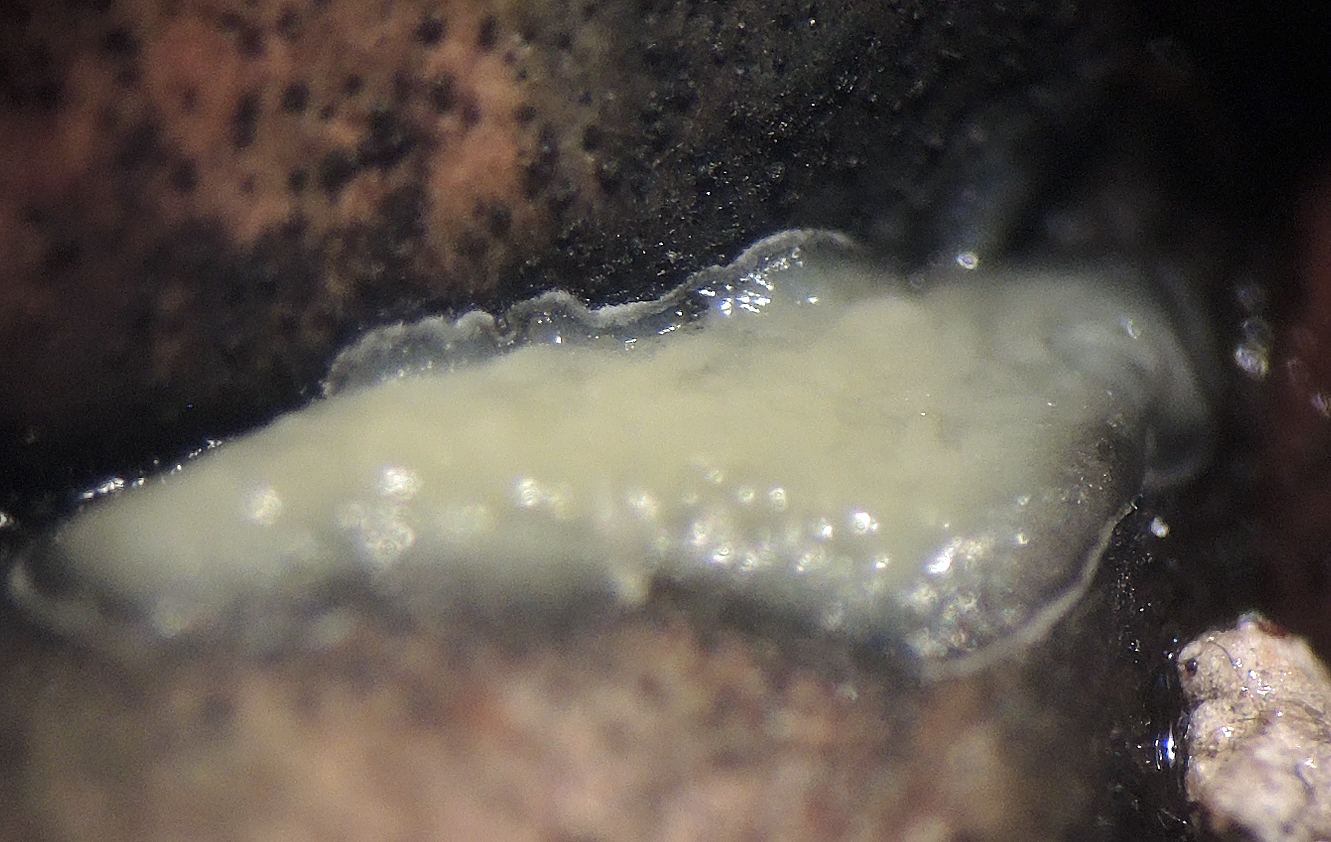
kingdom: Fungi
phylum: Ascomycota
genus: Patellina
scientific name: Patellina caesia
